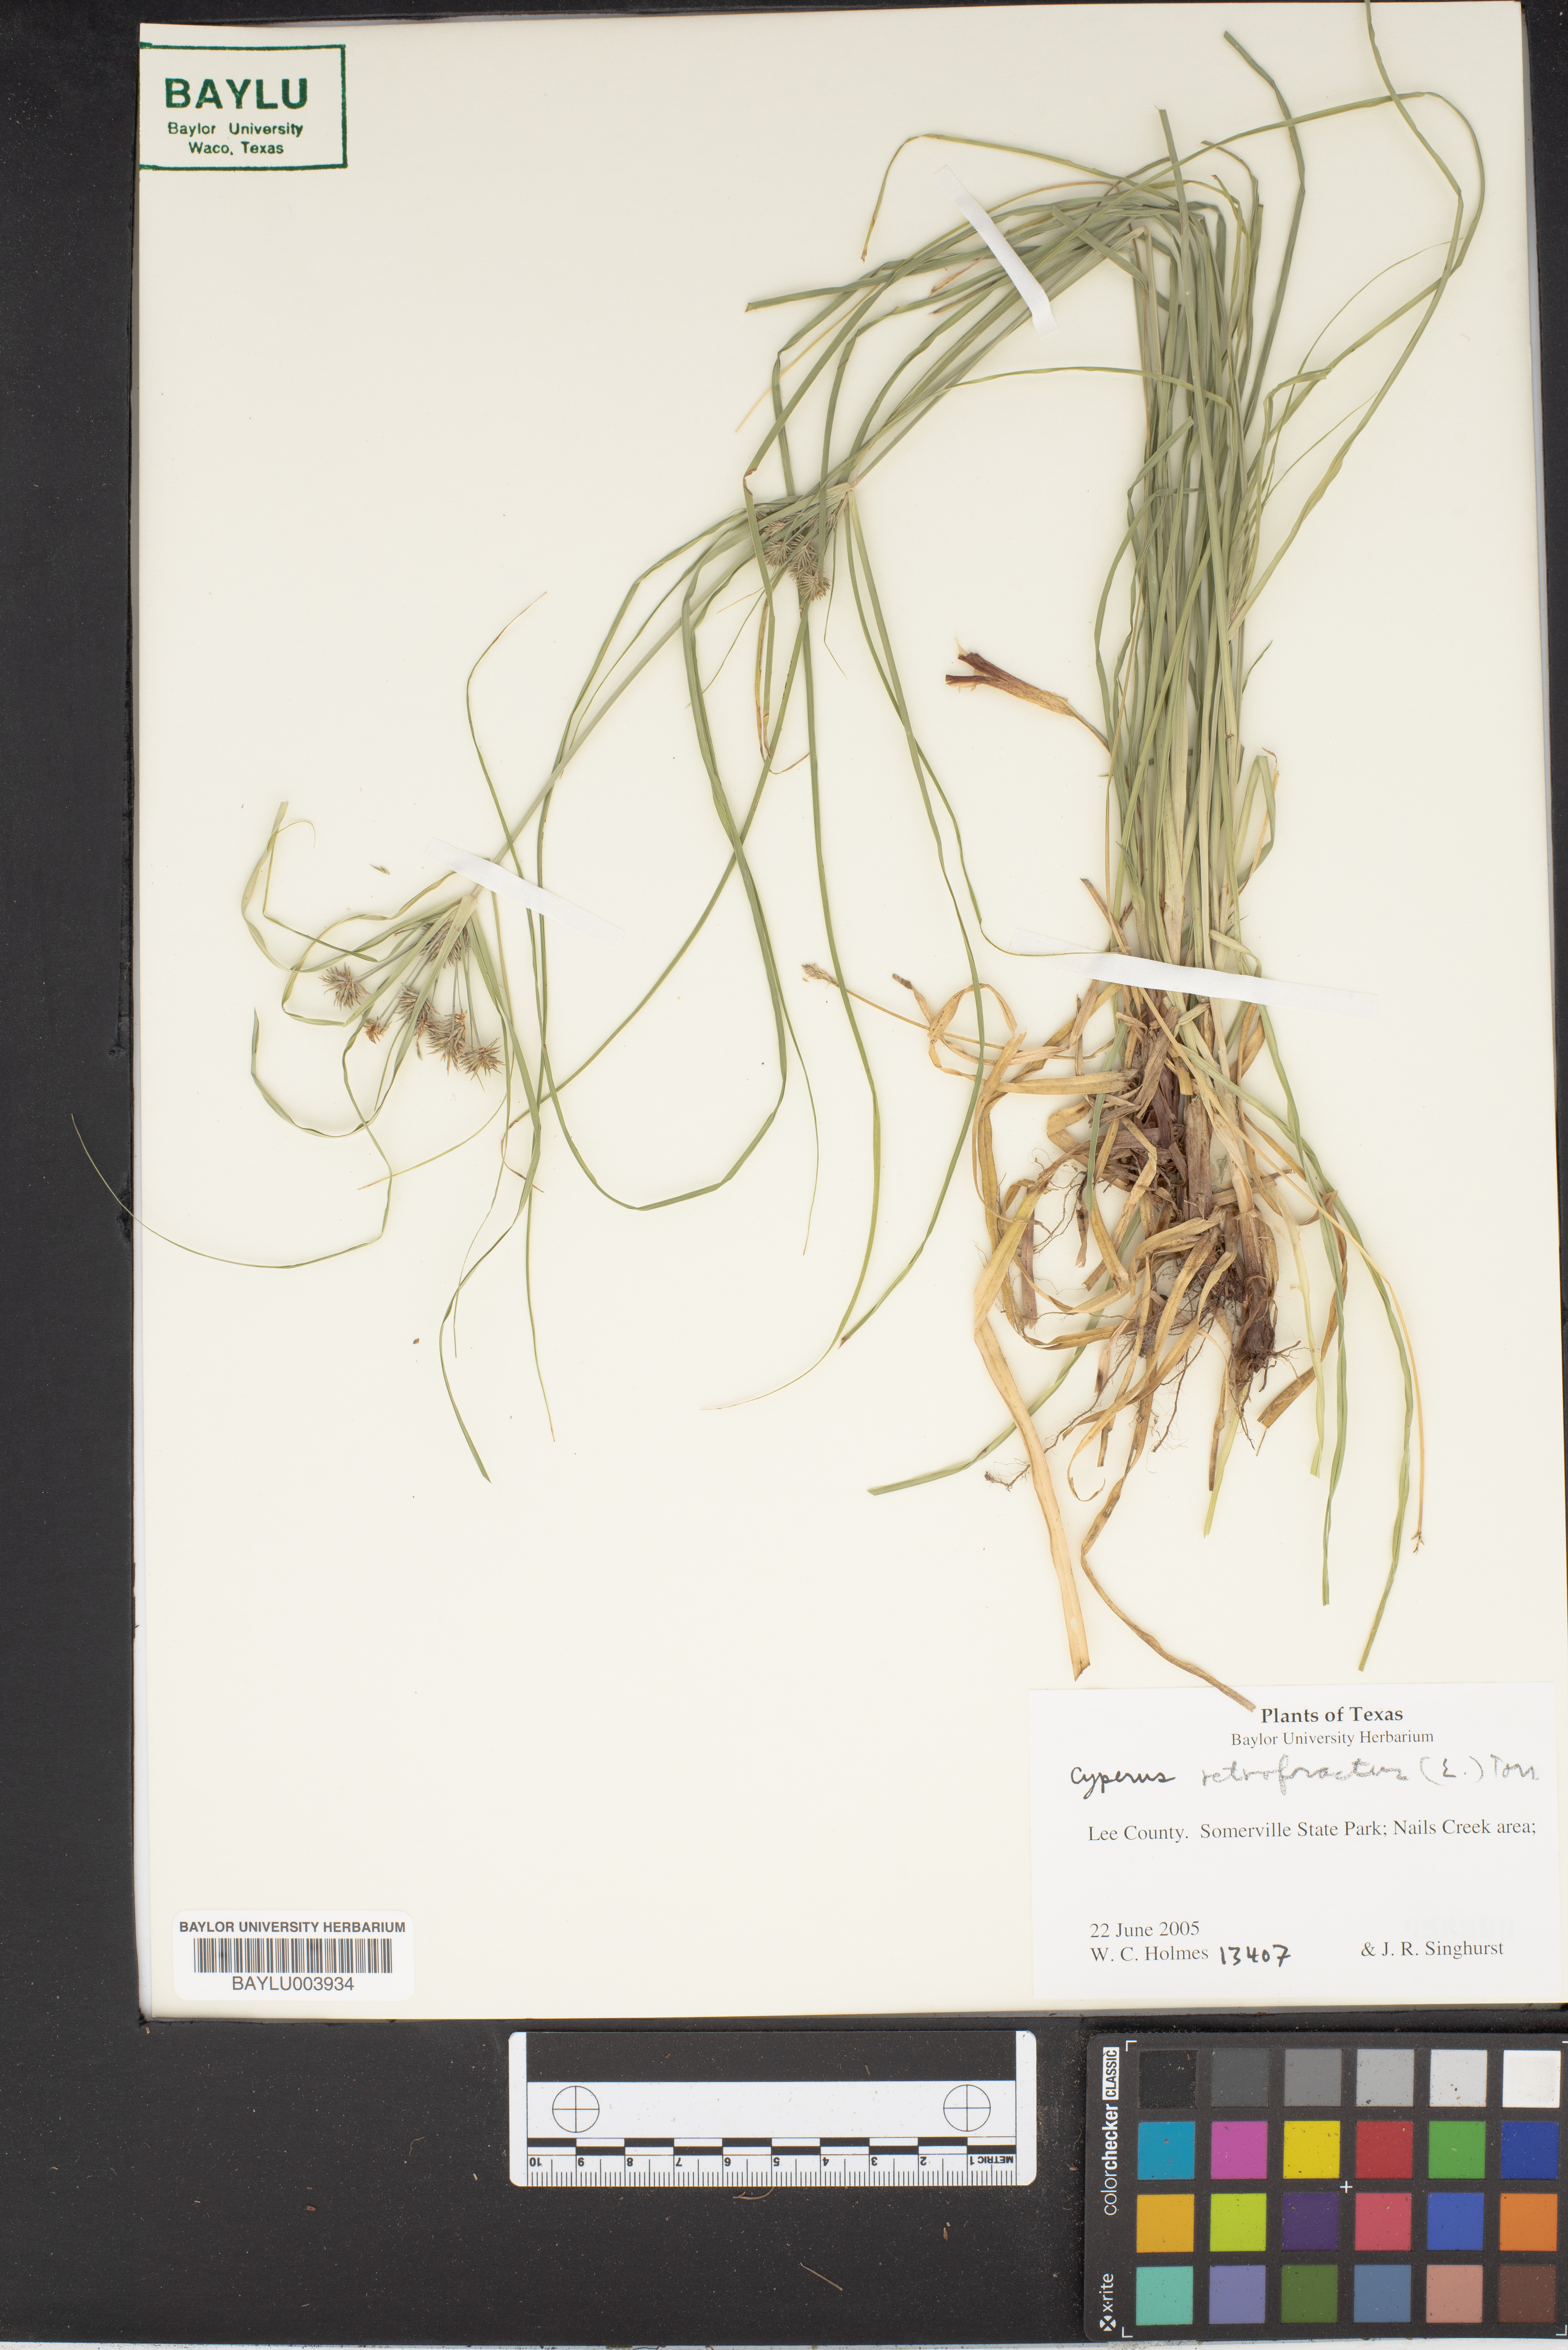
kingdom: Plantae
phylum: Tracheophyta
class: Liliopsida
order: Poales
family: Cyperaceae
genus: Cyperus
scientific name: Cyperus retrofractus
